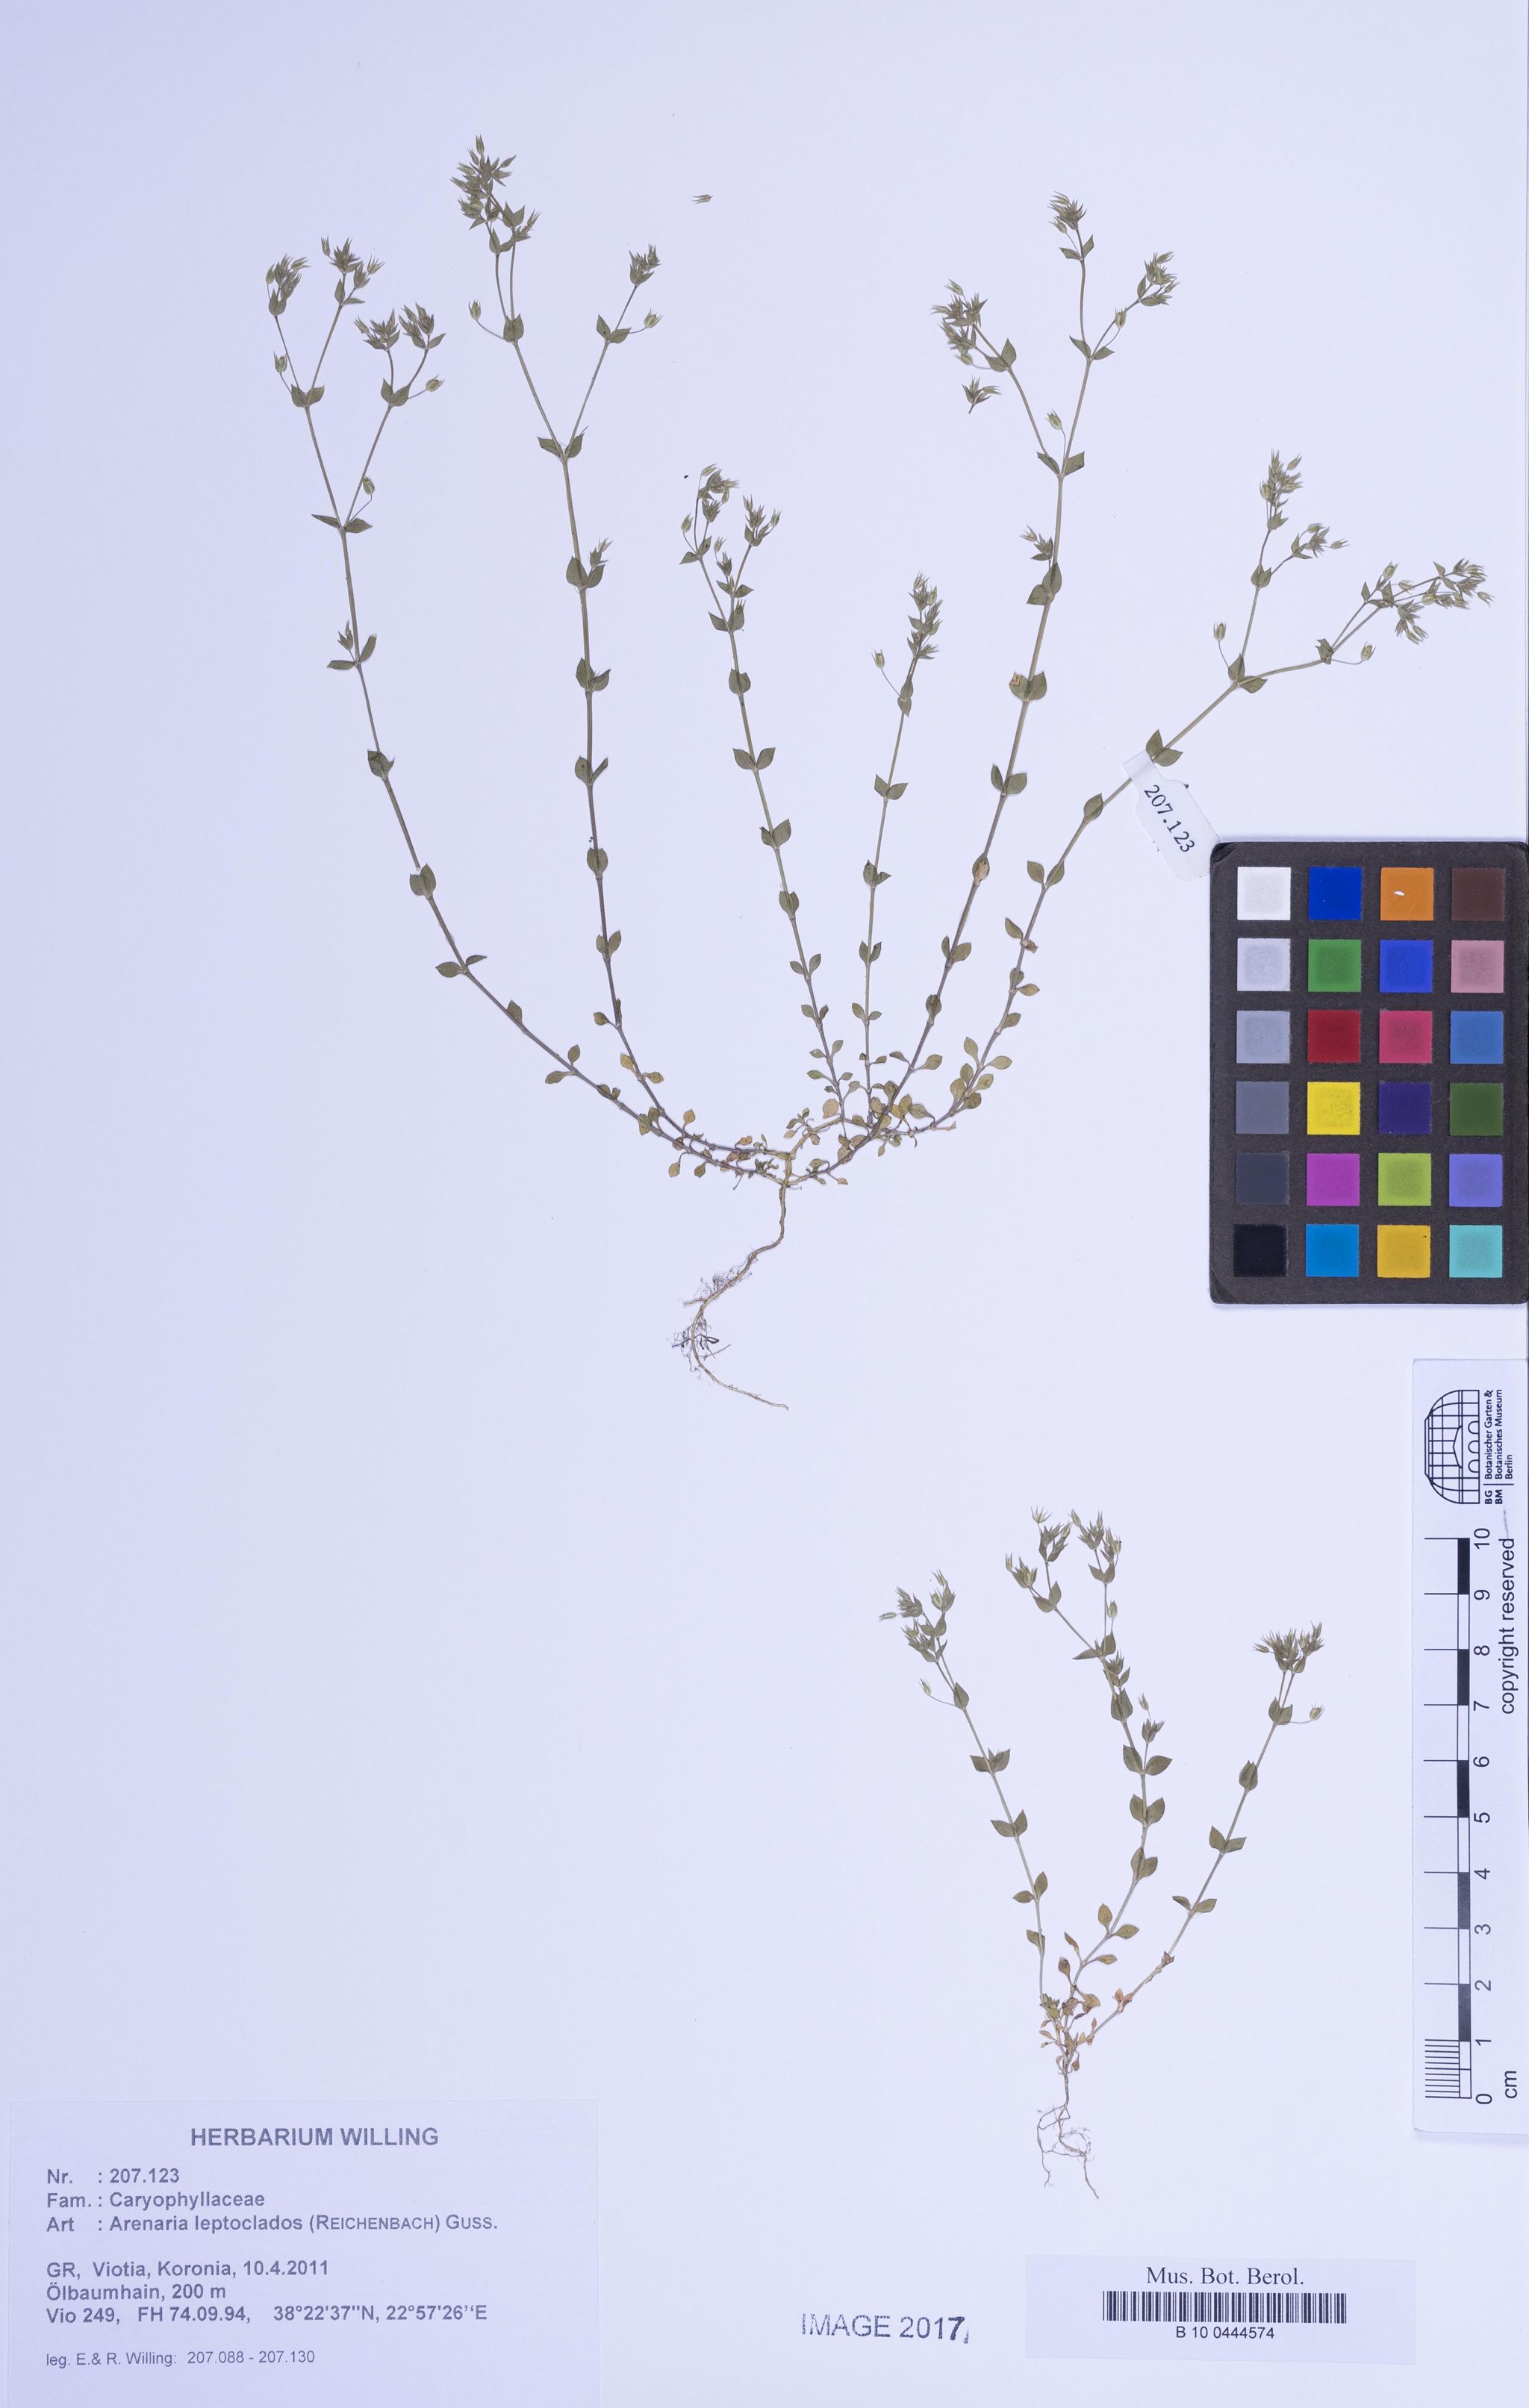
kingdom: Plantae
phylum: Tracheophyta
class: Magnoliopsida
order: Caryophyllales
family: Caryophyllaceae
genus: Arenaria
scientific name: Arenaria leptoclados
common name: Thyme-leaved sandwort
